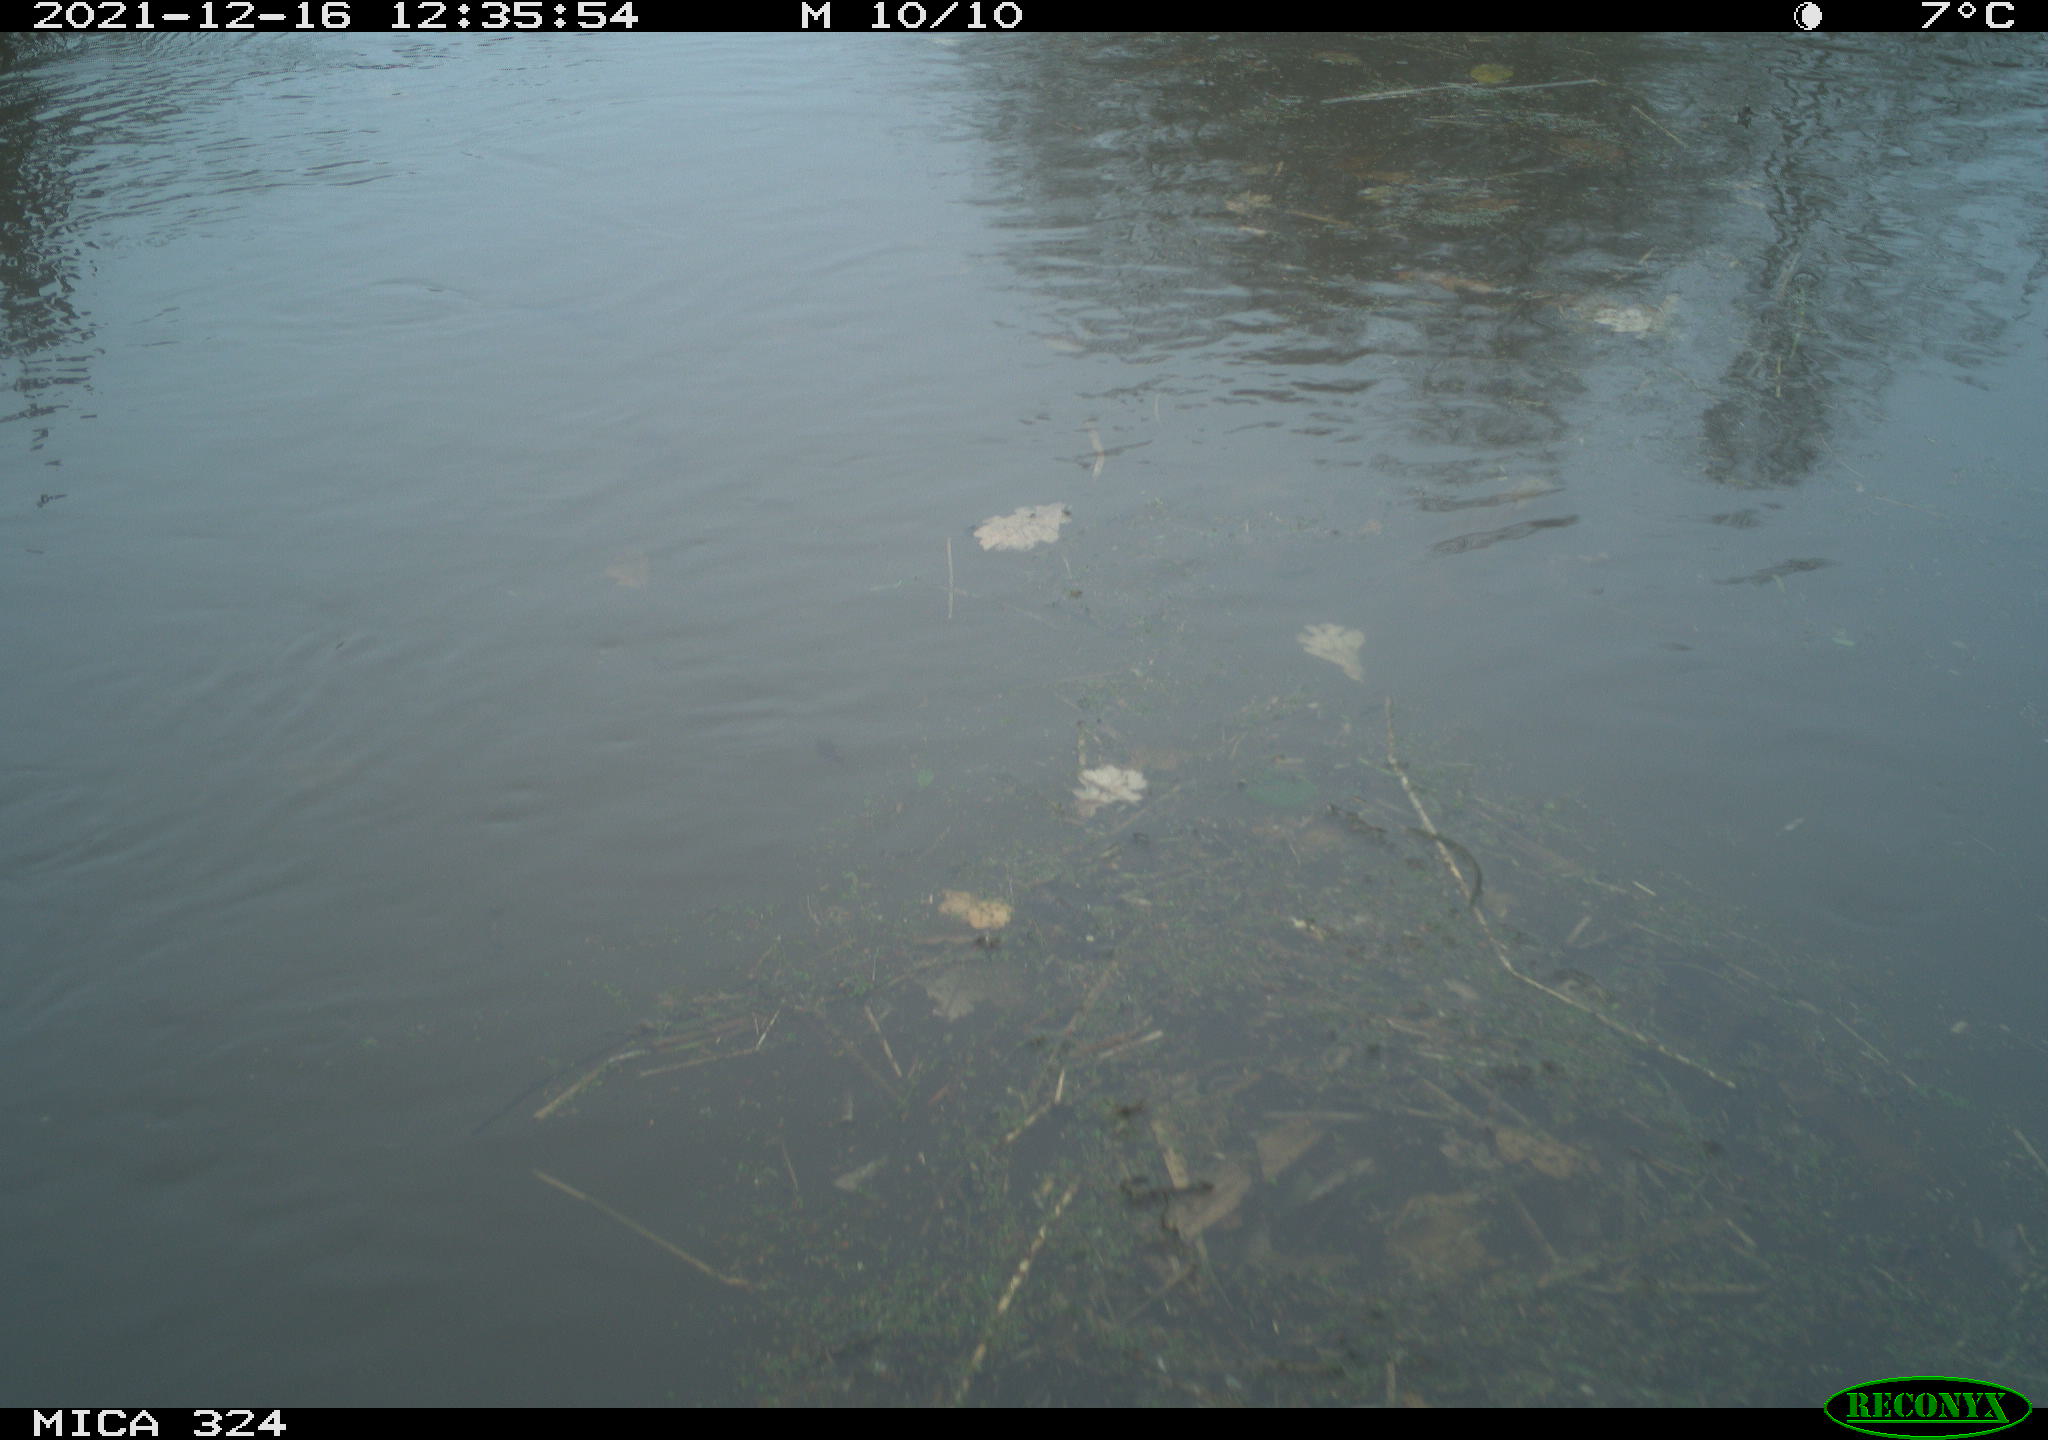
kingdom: Animalia
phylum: Chordata
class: Mammalia
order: Rodentia
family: Cricetidae
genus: Ondatra
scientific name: Ondatra zibethicus
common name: Muskrat
